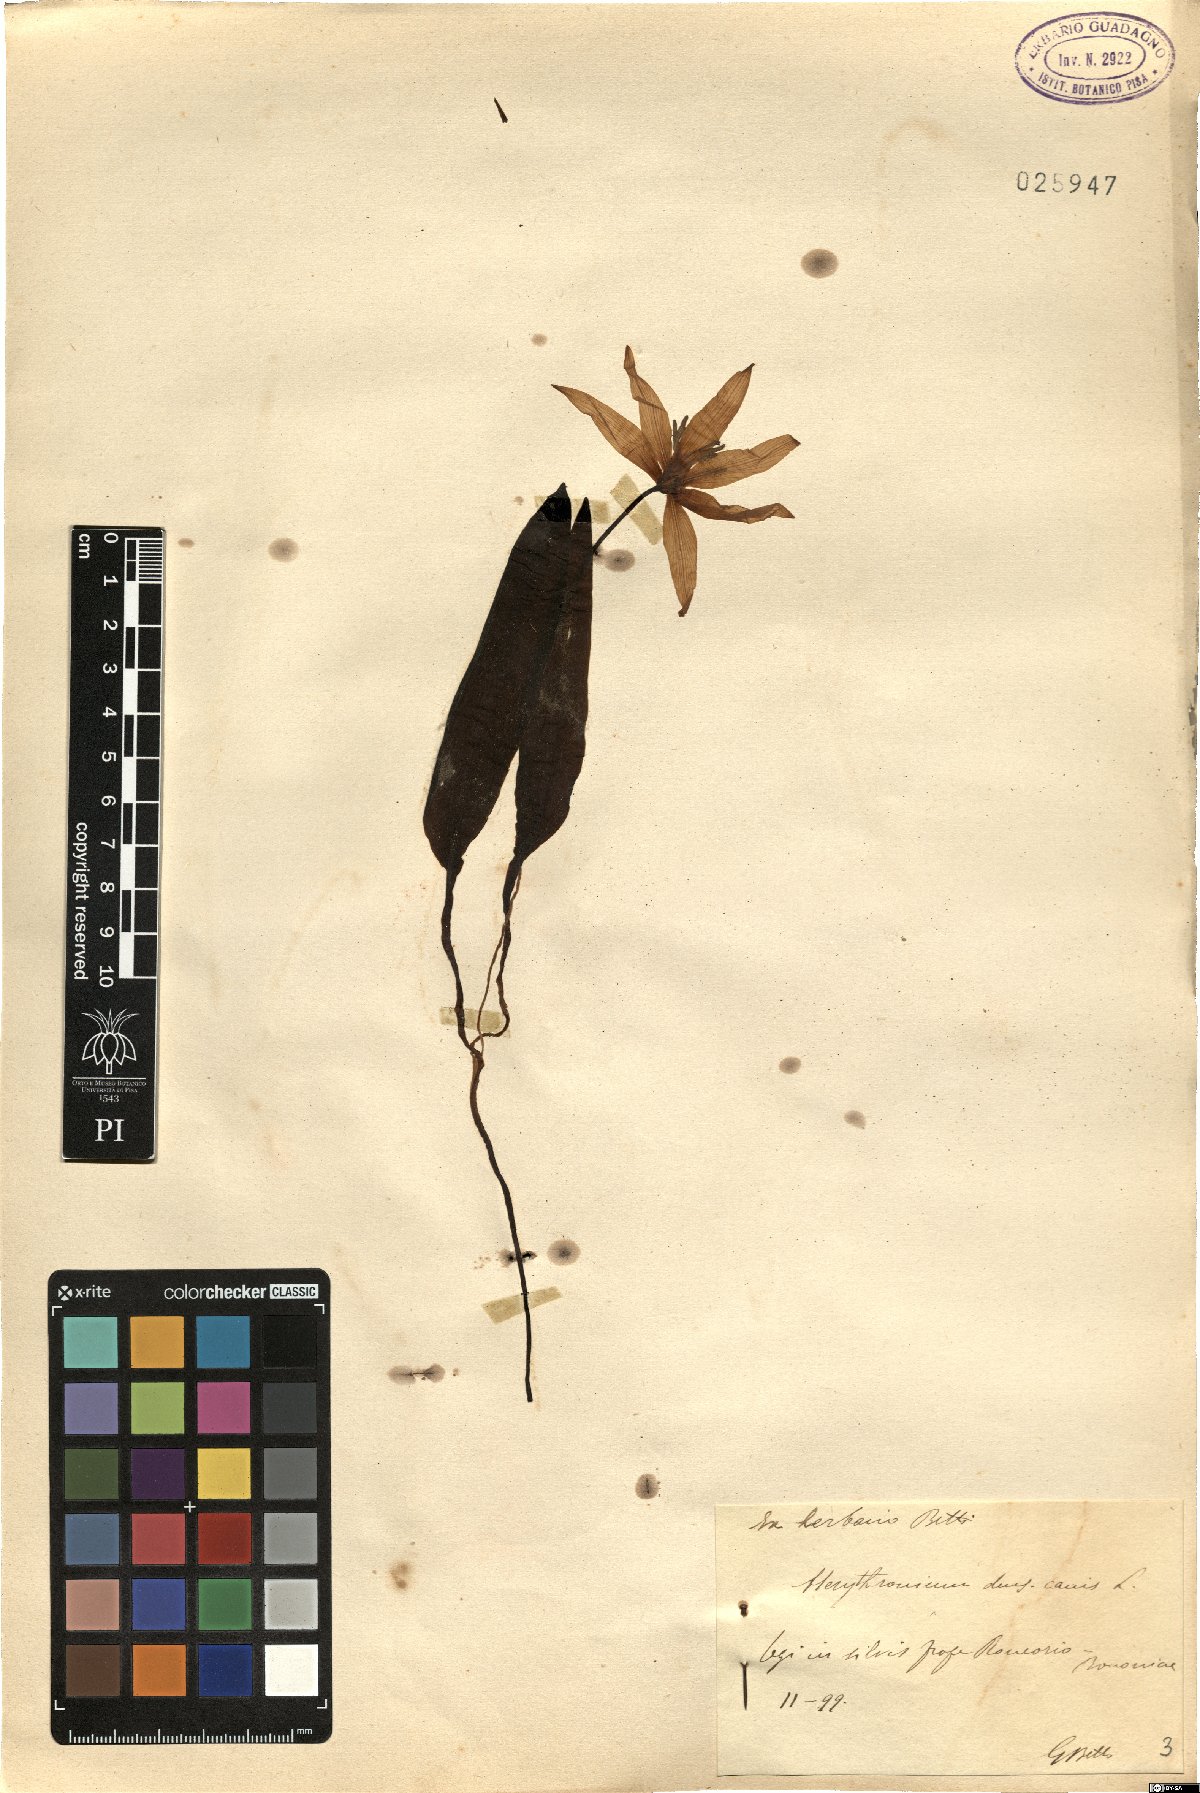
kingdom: Plantae
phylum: Tracheophyta
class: Liliopsida
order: Liliales
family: Liliaceae
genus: Erythronium
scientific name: Erythronium dens-canis
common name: Dog's-tooth-violet
